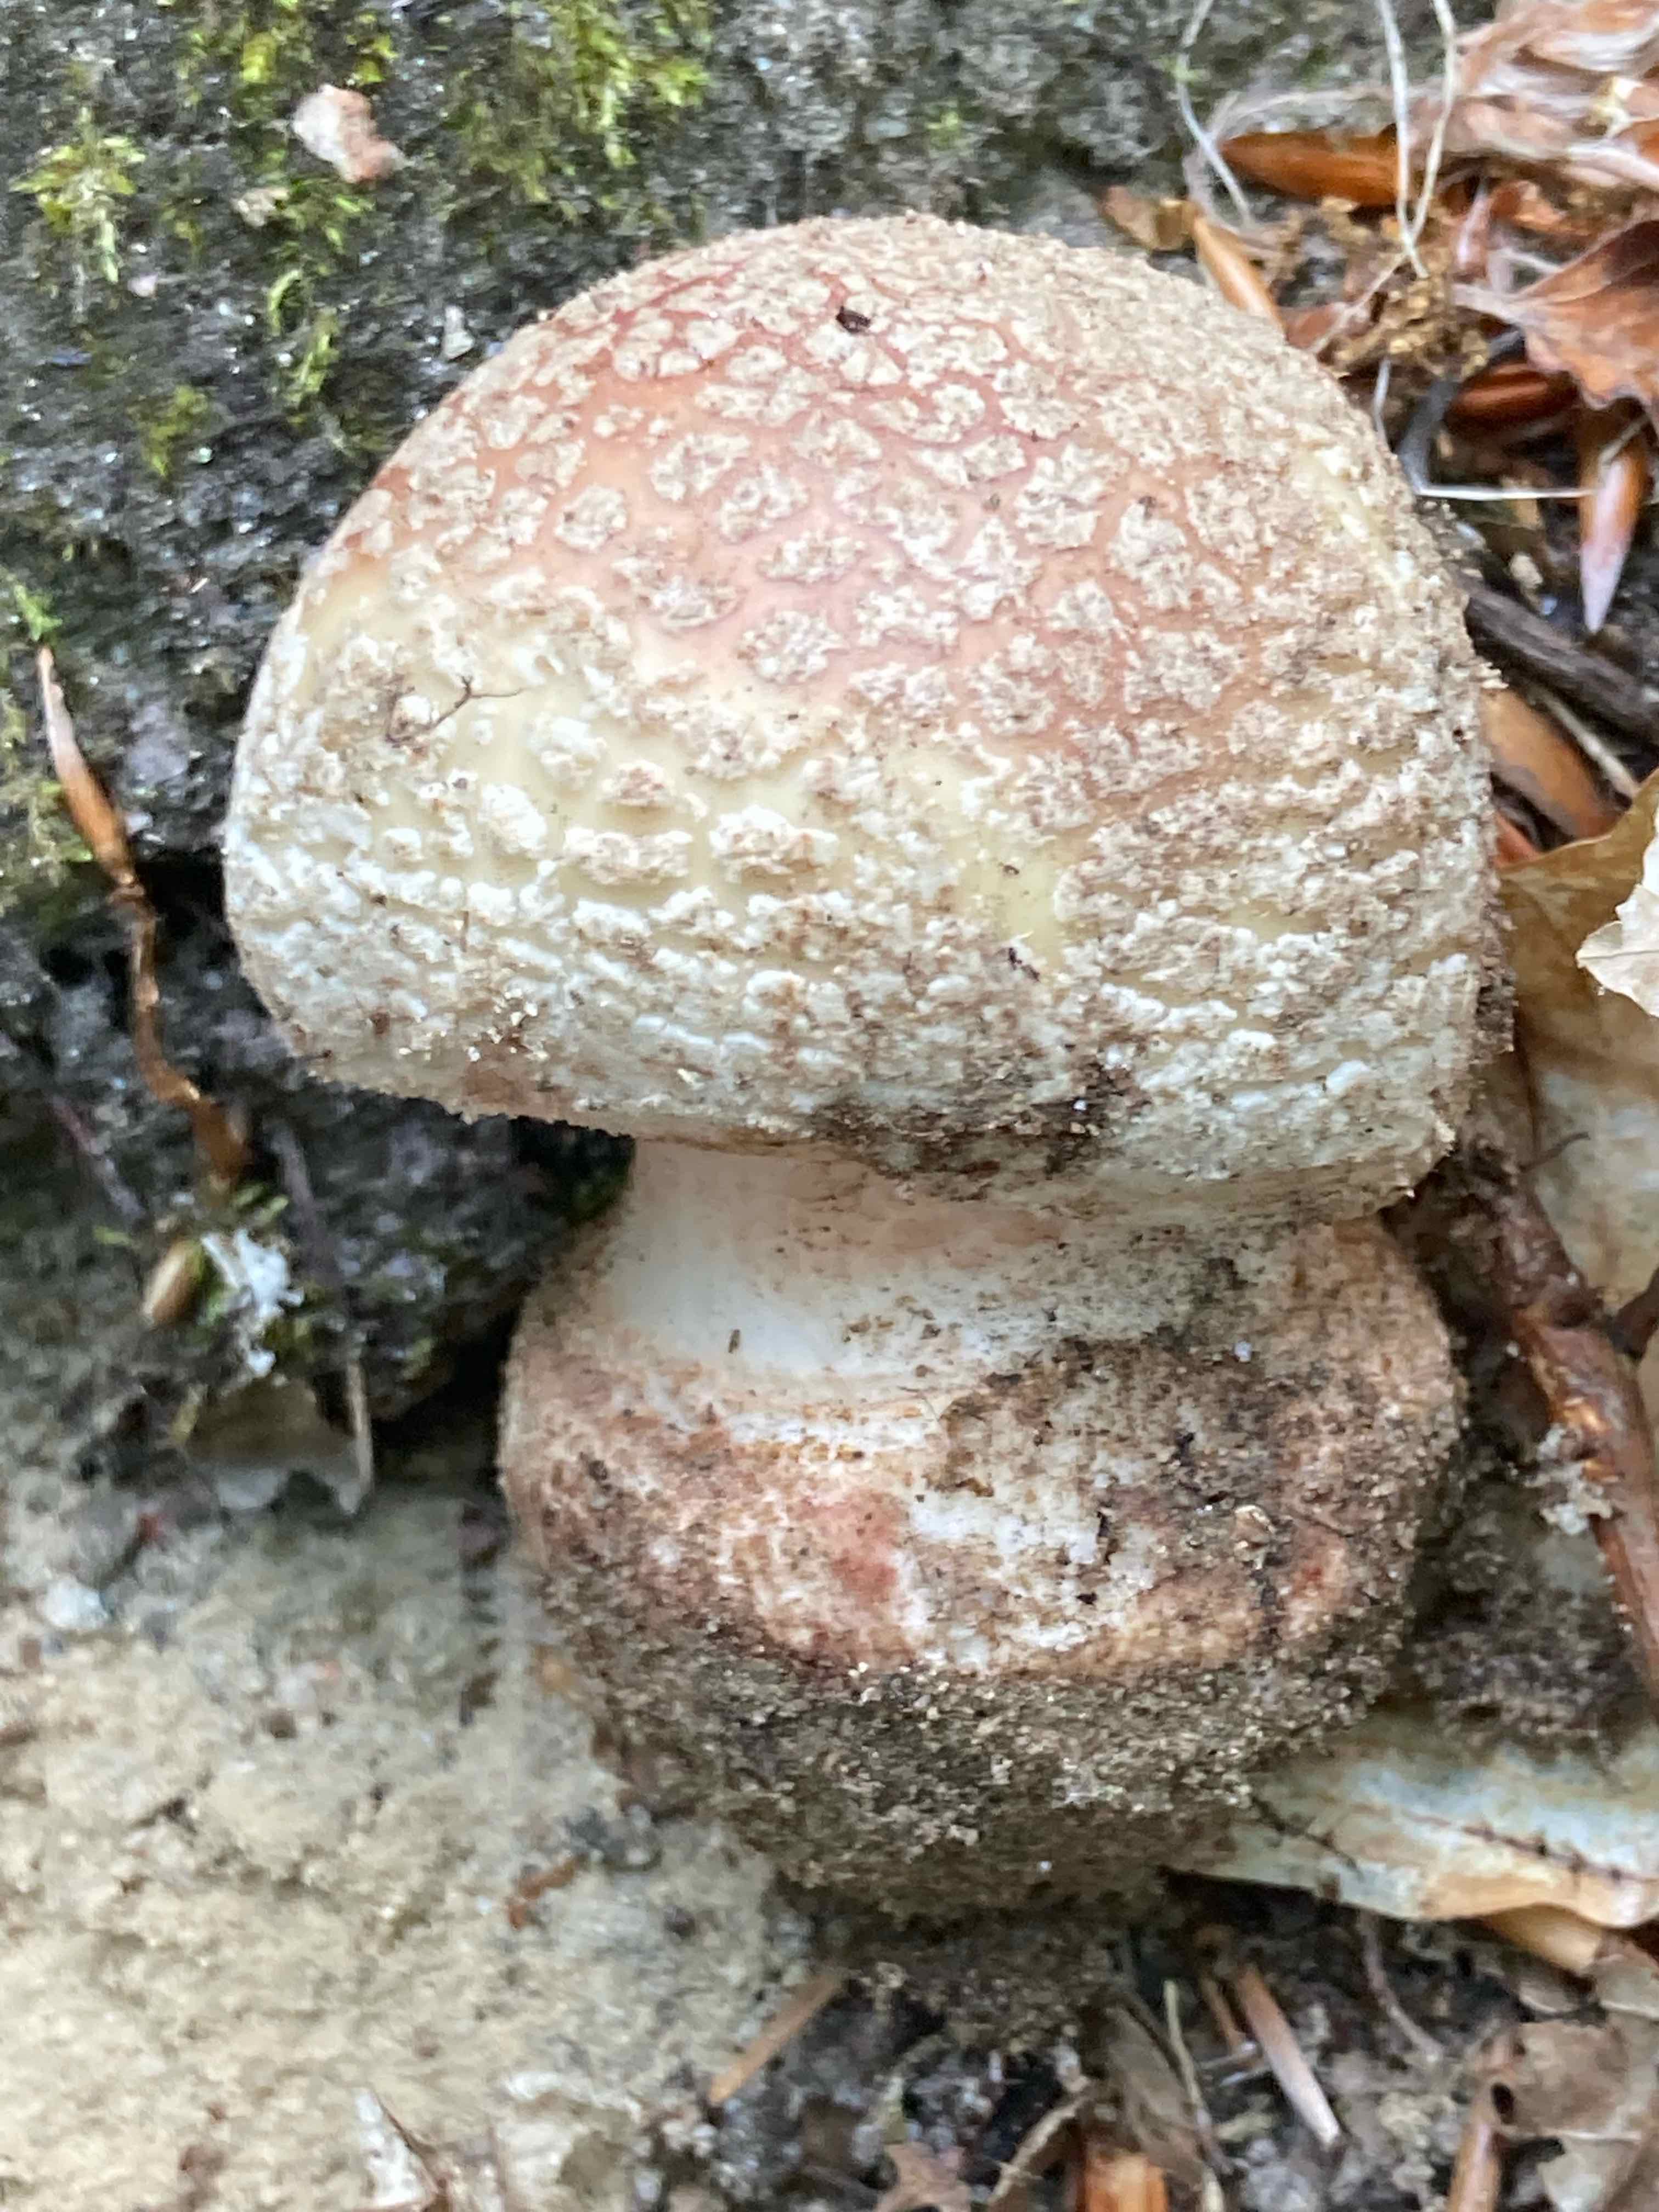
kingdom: Fungi
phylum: Basidiomycota
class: Agaricomycetes
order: Agaricales
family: Amanitaceae
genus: Amanita
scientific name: Amanita rubescens
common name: rødmende fluesvamp
